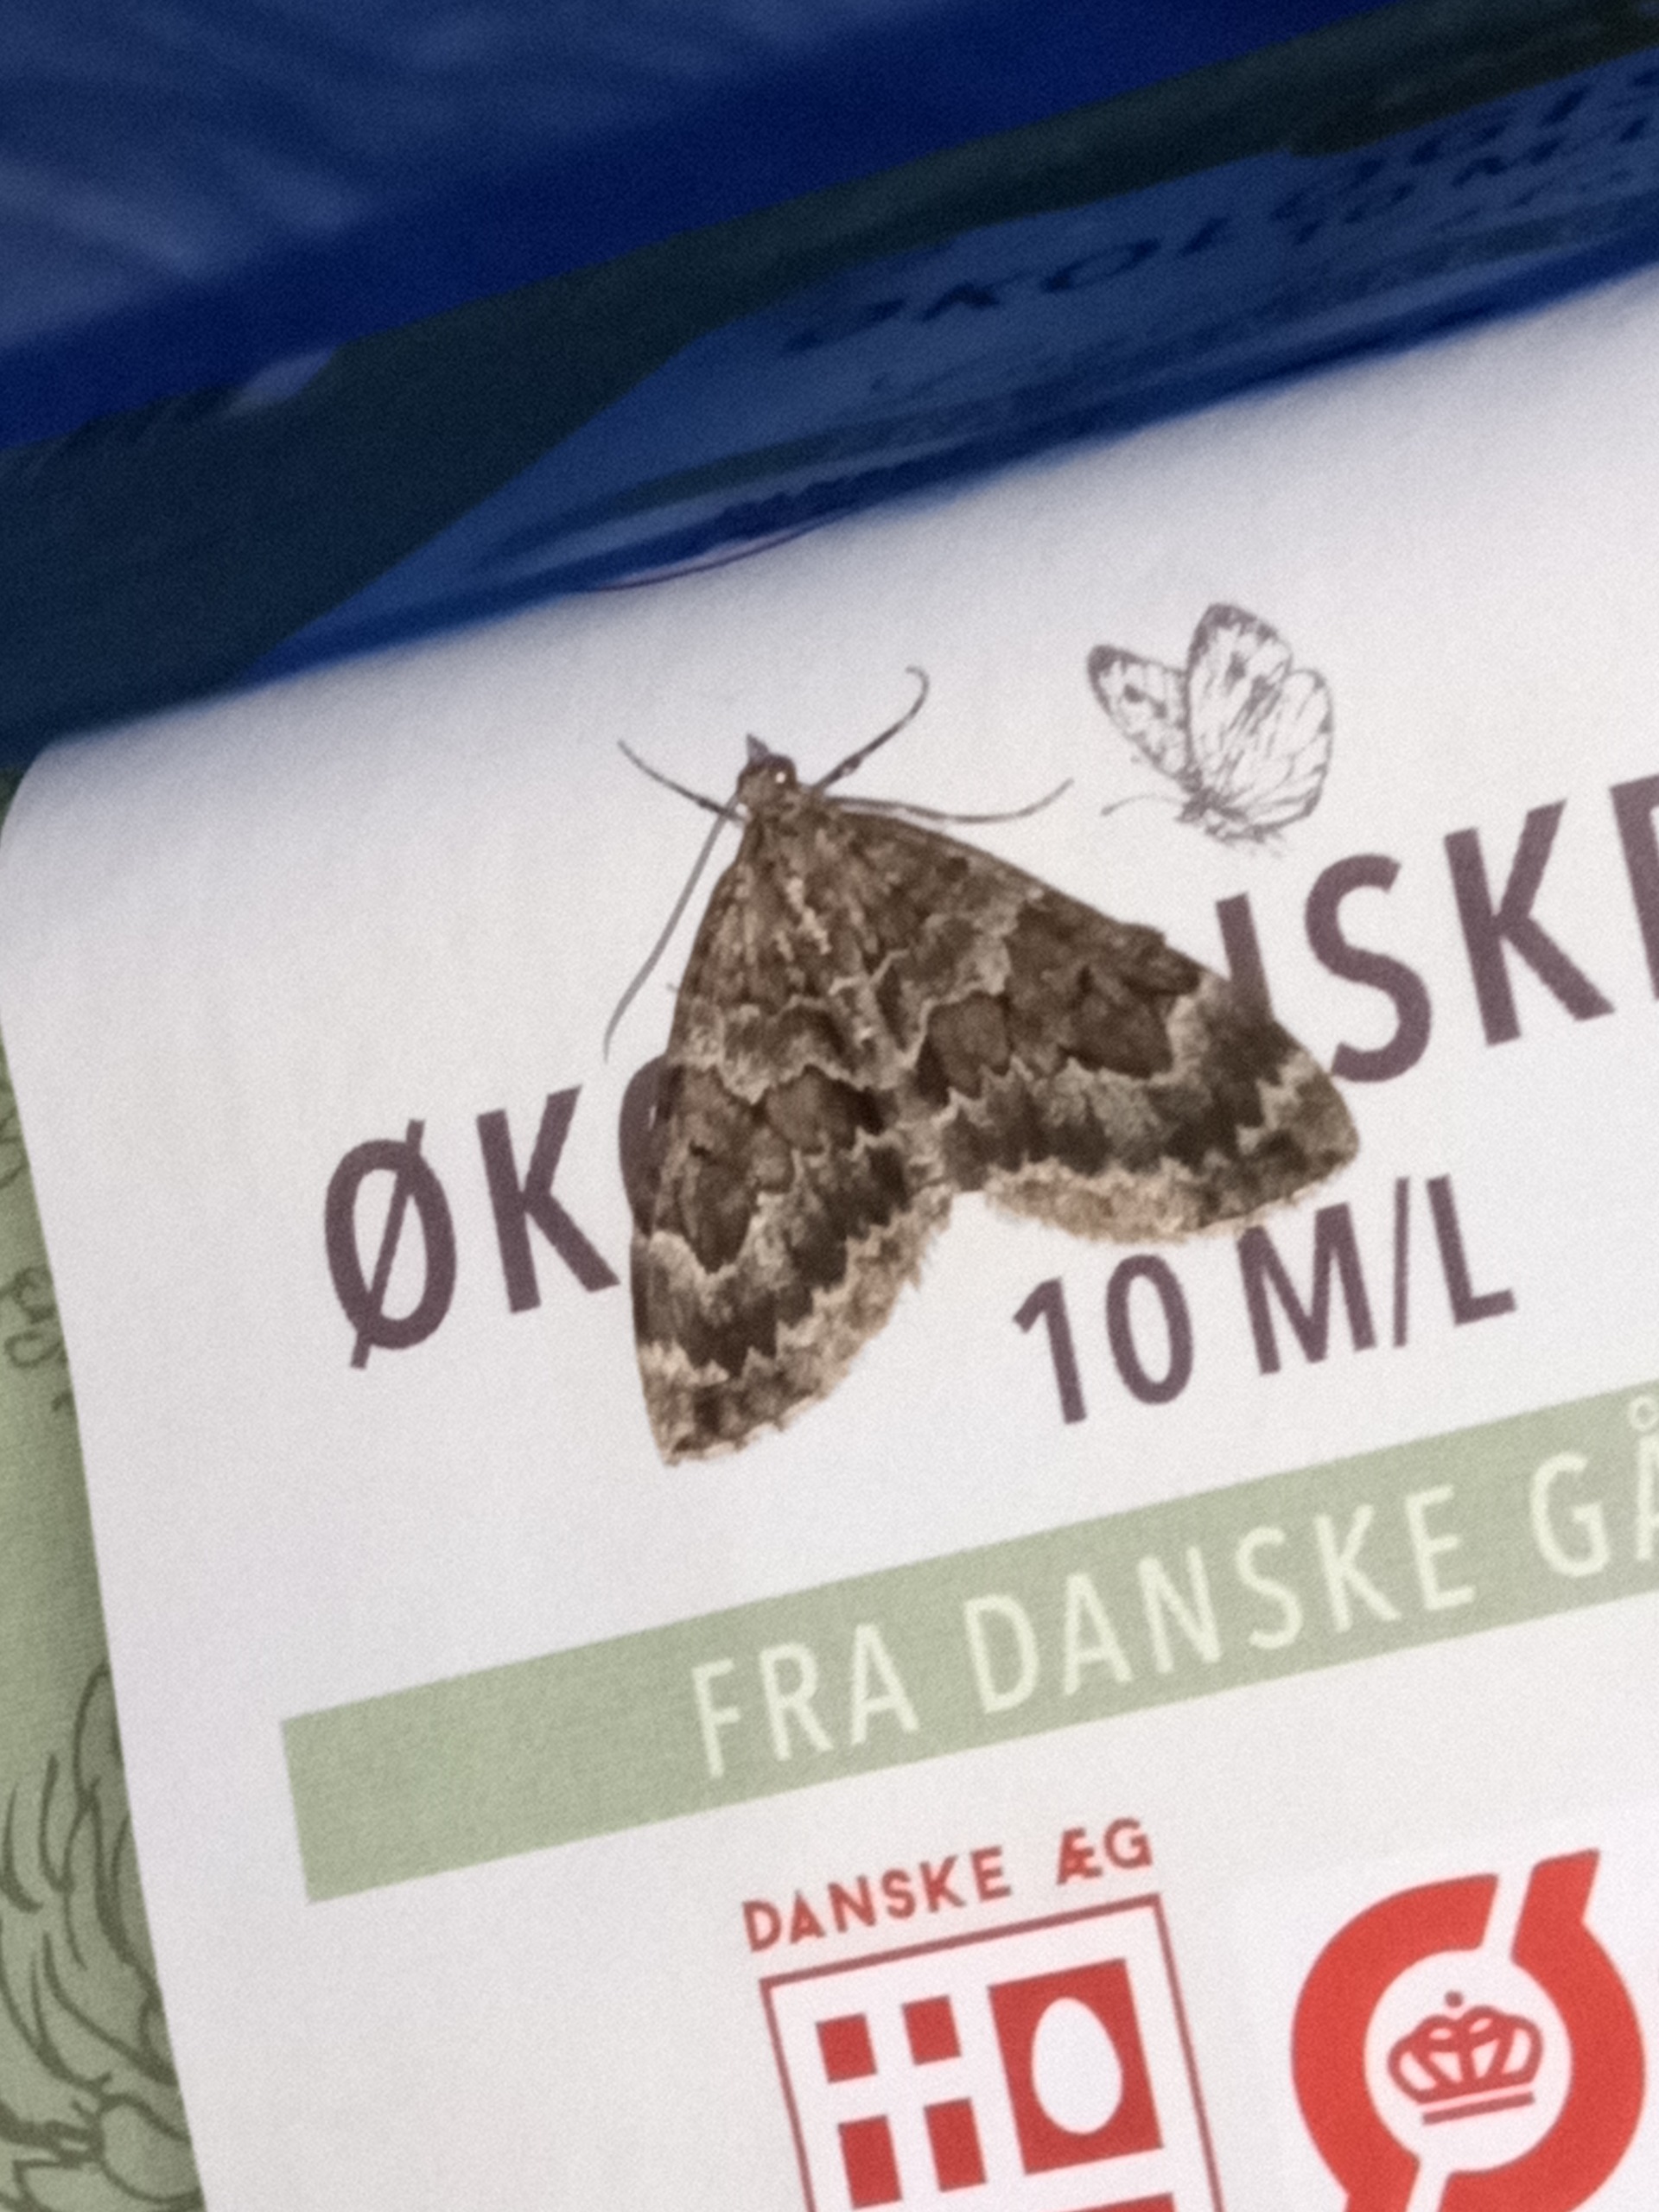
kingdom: Animalia
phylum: Arthropoda
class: Insecta
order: Lepidoptera
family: Geometridae
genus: Thera
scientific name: Thera britannica
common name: Ædelgranmåler
